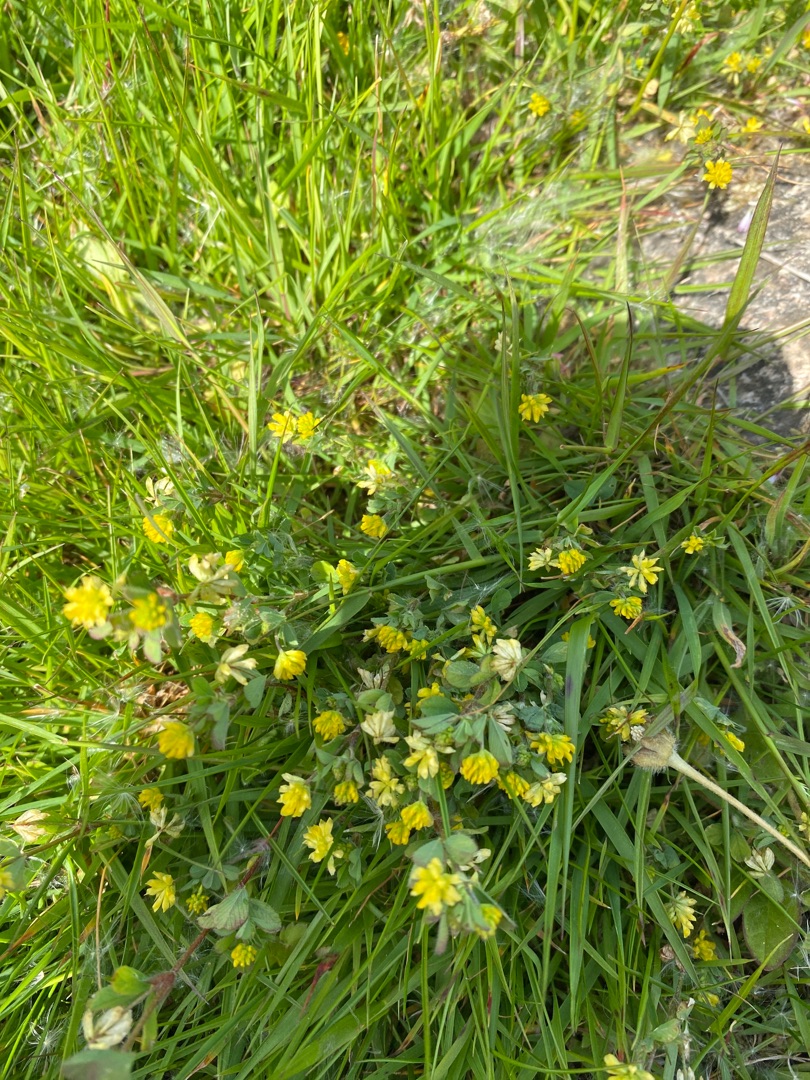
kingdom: Plantae
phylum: Tracheophyta
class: Magnoliopsida
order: Fabales
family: Fabaceae
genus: Trifolium
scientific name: Trifolium dubium
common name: Fin kløver
